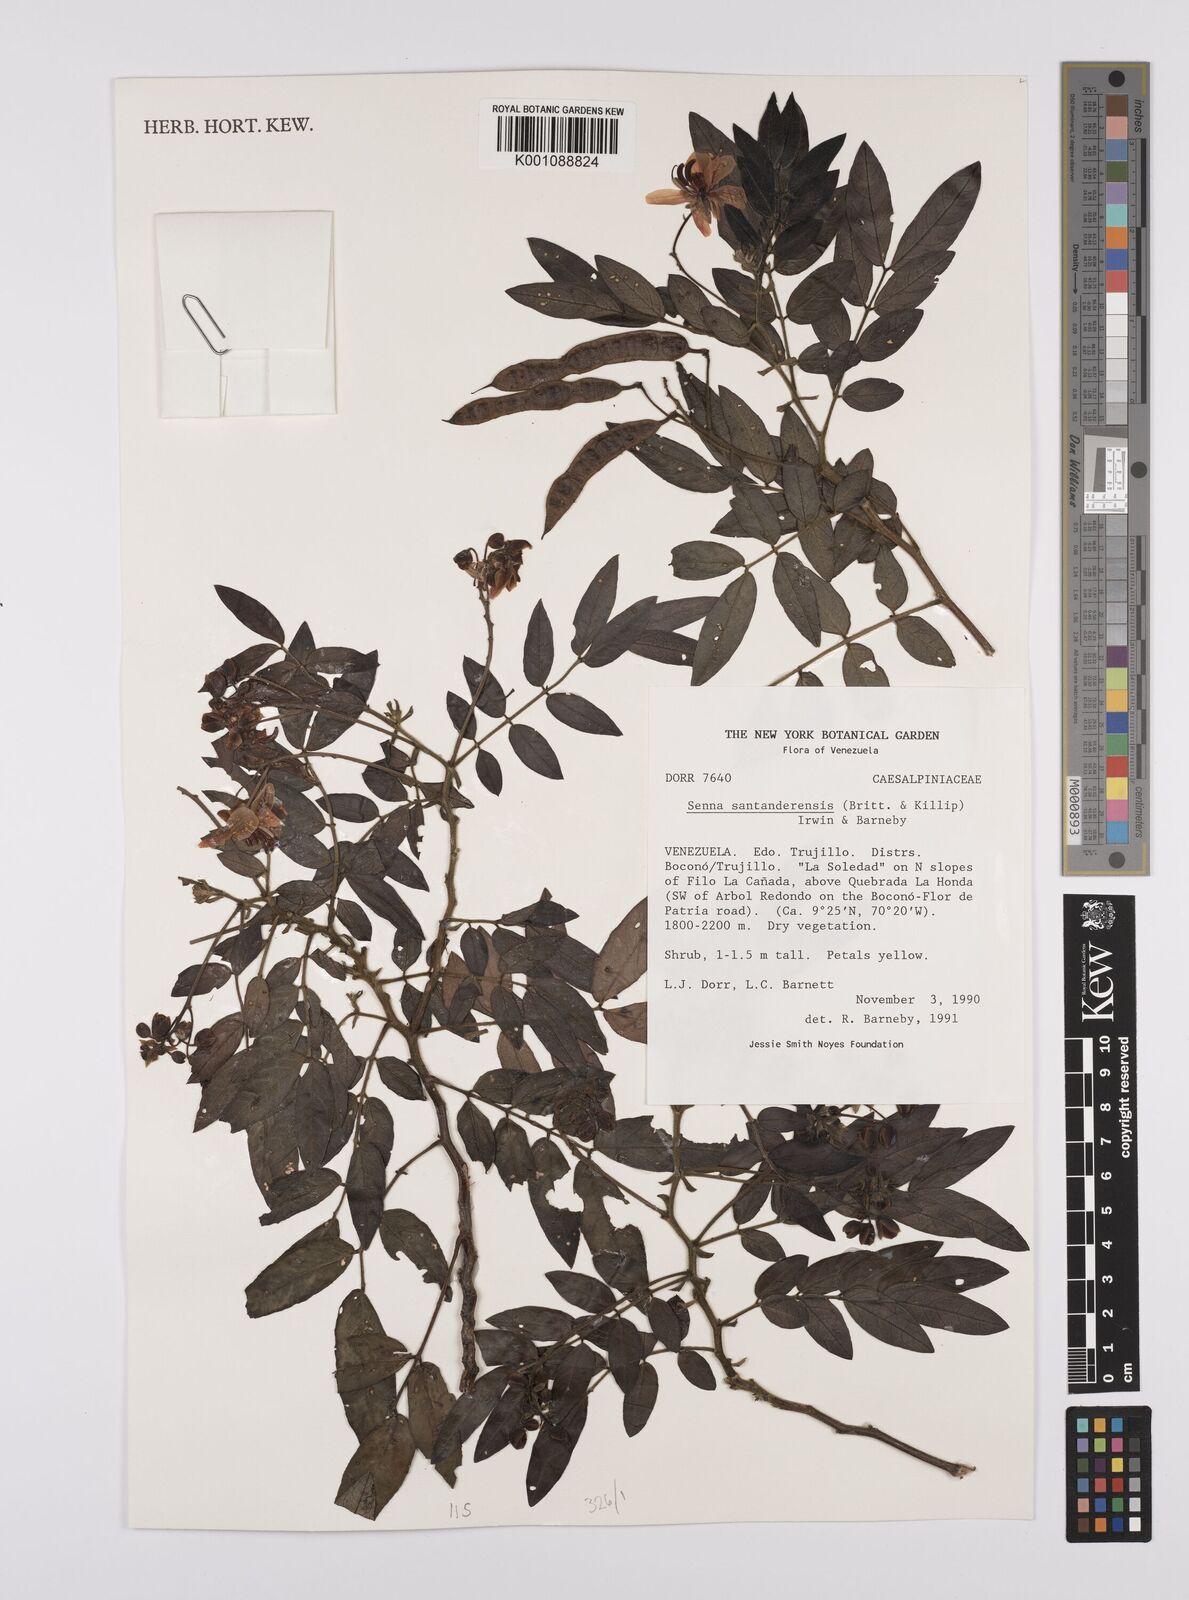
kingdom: Plantae
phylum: Tracheophyta
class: Magnoliopsida
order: Fabales
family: Fabaceae
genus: Senna
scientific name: Senna santanderensis
